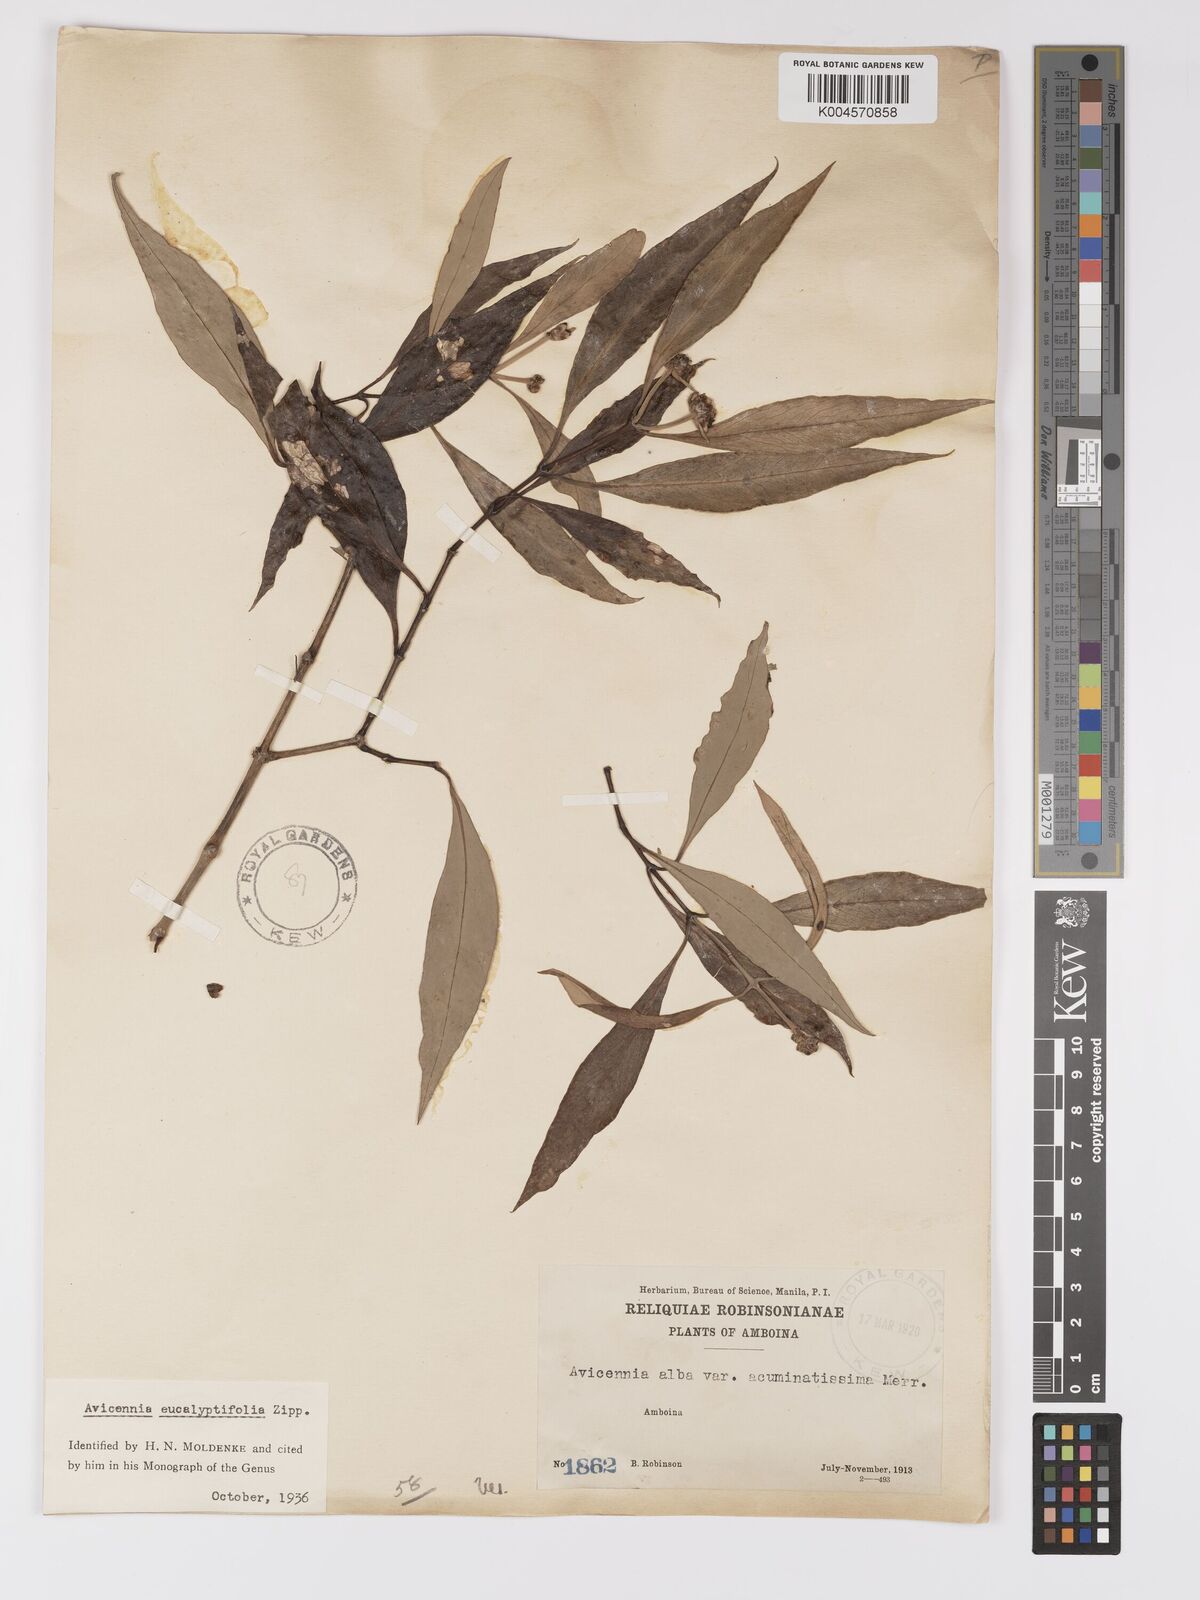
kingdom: Plantae
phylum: Tracheophyta
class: Magnoliopsida
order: Lamiales
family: Acanthaceae
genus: Avicennia
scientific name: Avicennia marina
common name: Gray mangrove
